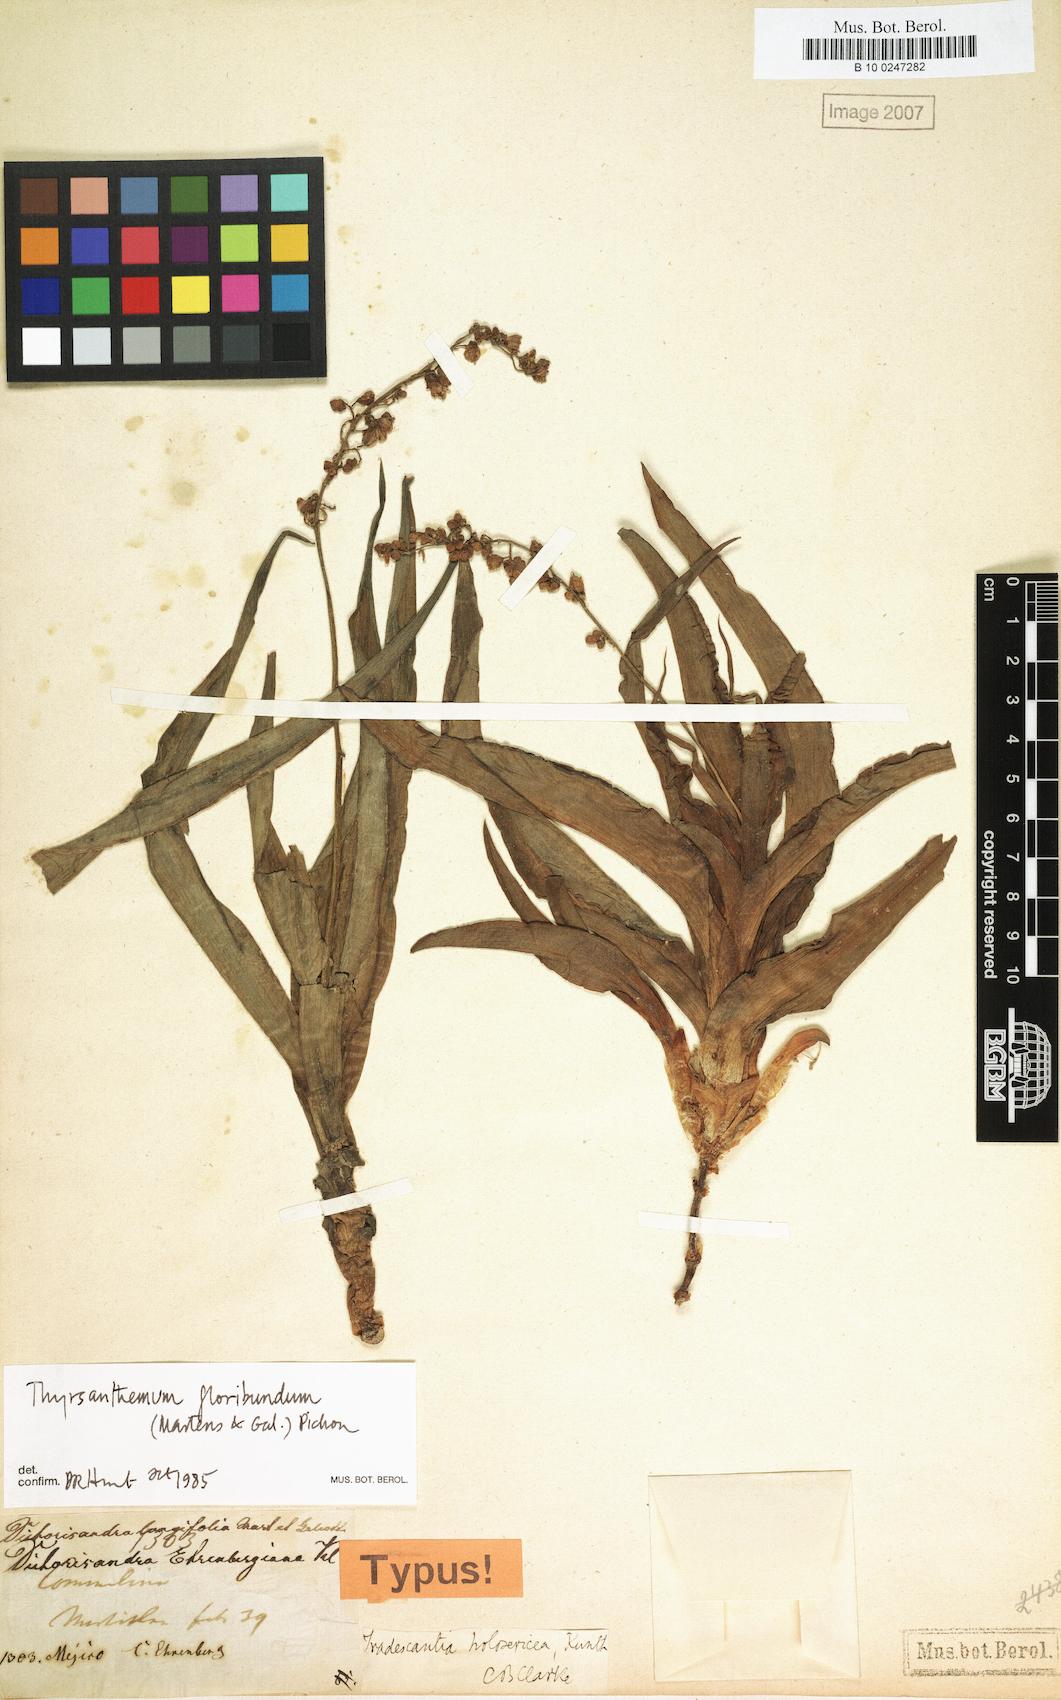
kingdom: Plantae
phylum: Tracheophyta
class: Liliopsida
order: Commelinales
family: Commelinaceae
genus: Thyrsanthemum
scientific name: Thyrsanthemum floribundum
